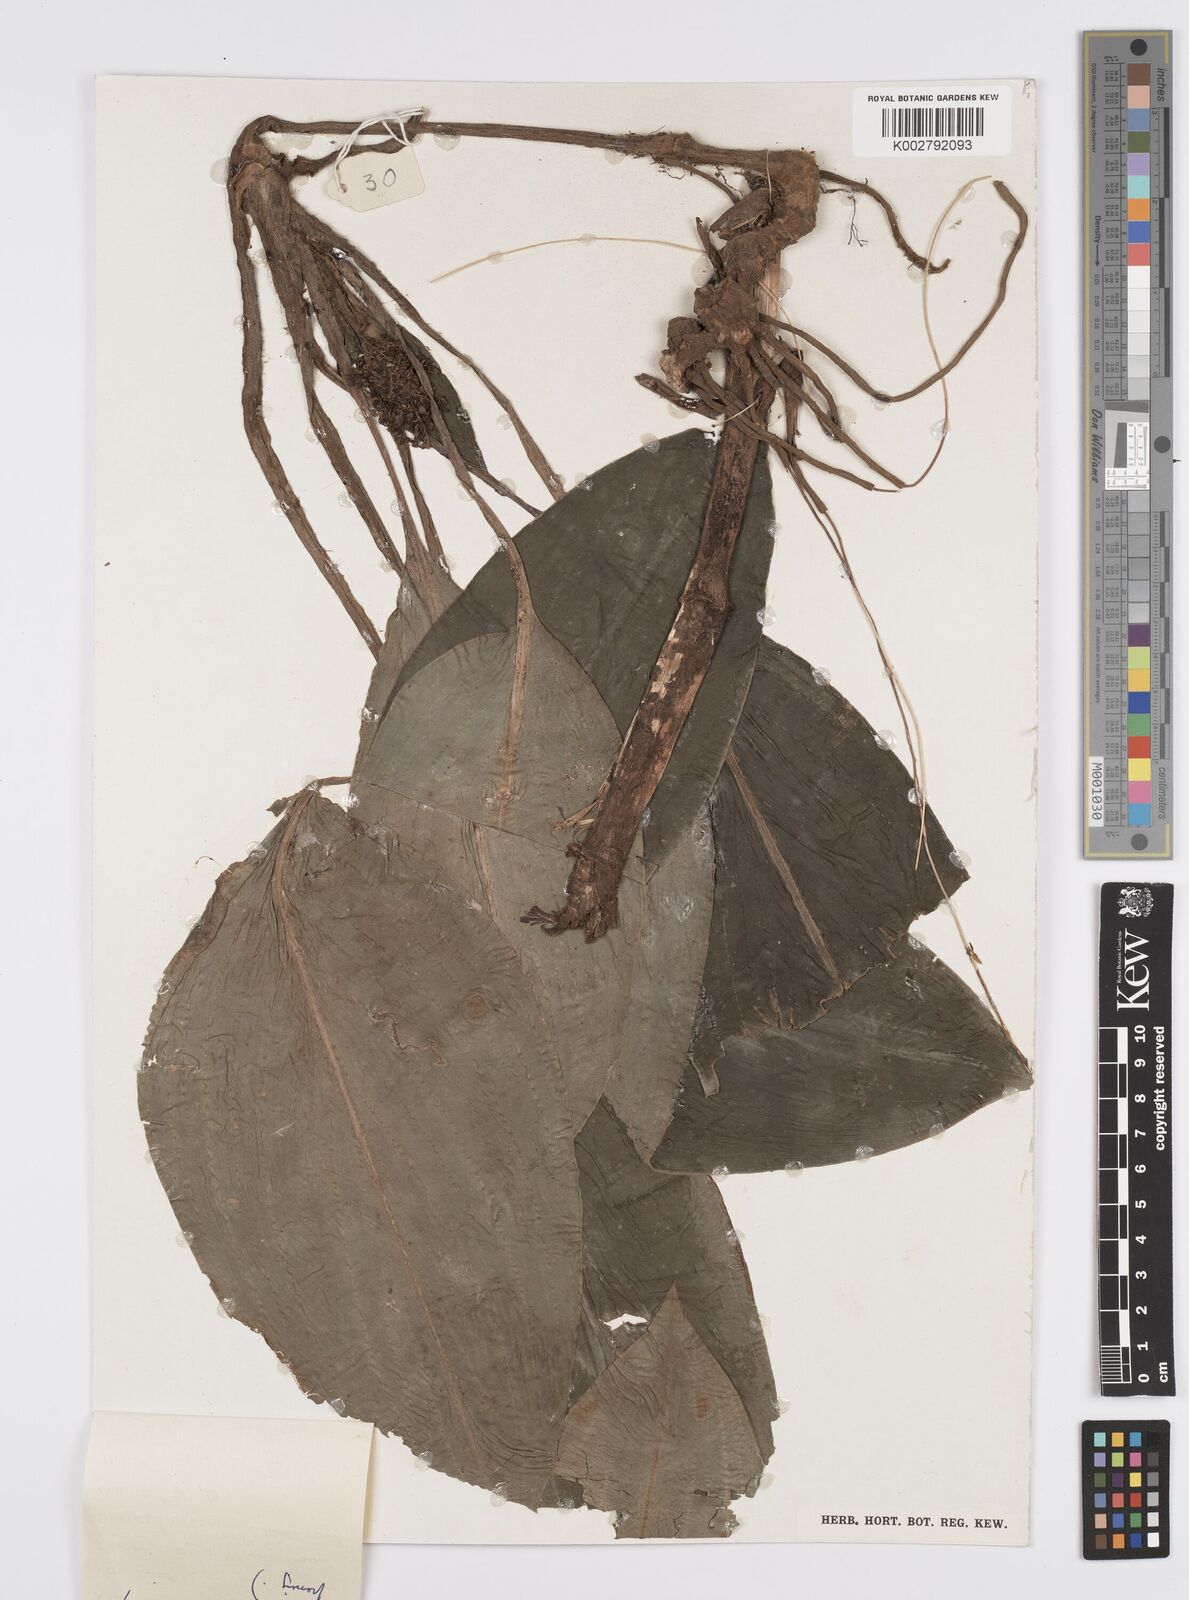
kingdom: Plantae
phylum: Tracheophyta
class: Liliopsida
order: Commelinales
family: Commelinaceae
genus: Palisota
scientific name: Palisota barteri
